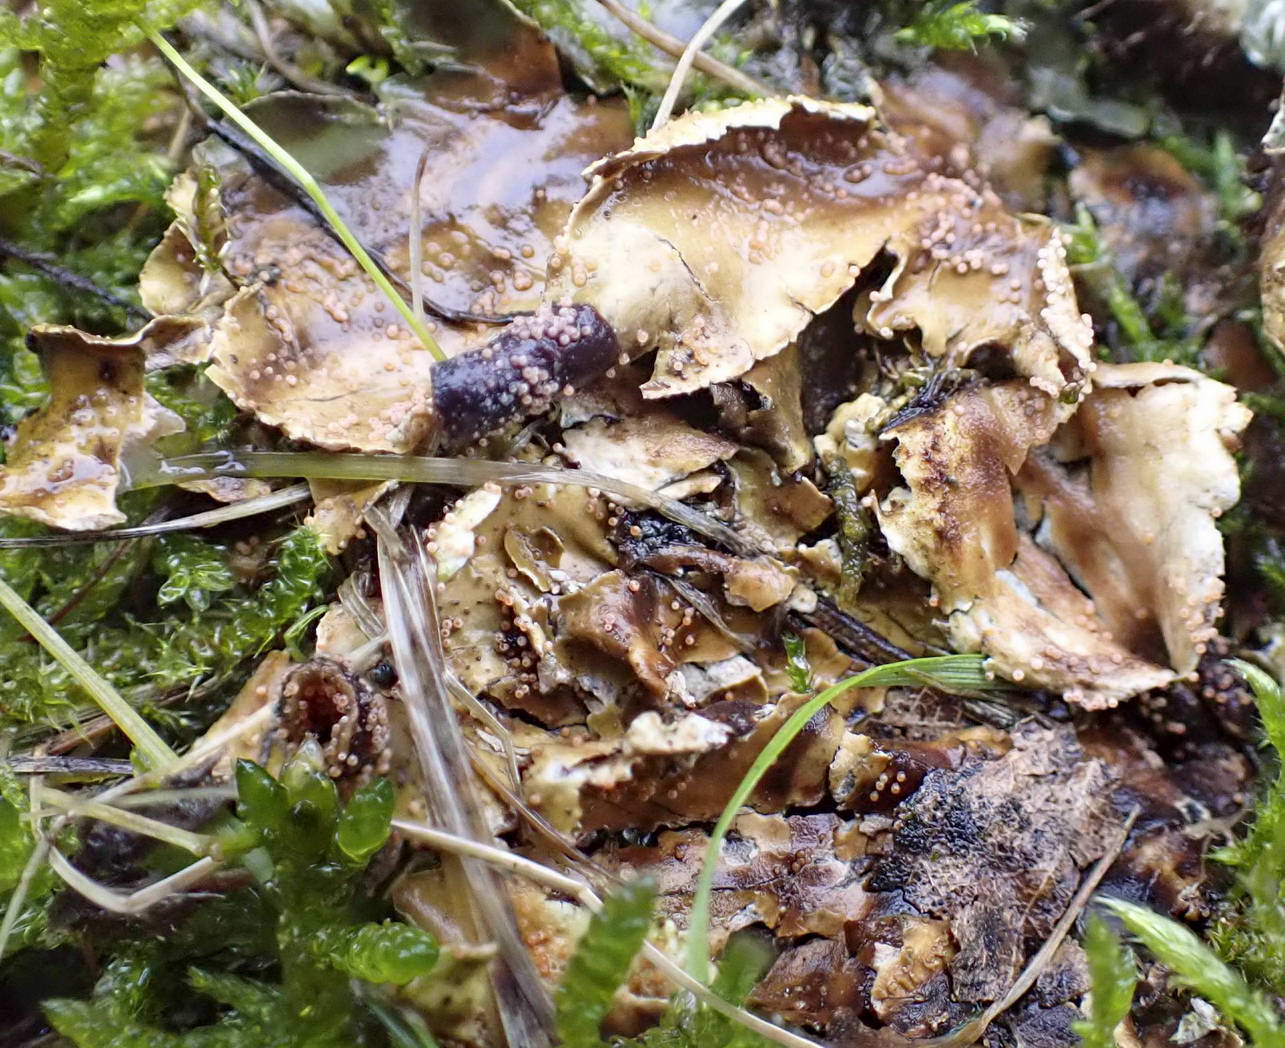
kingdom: Fungi
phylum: Ascomycota
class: Sordariomycetes
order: Hypocreales
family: Bionectriaceae
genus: Nectriopsis
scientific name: Nectriopsis lecanodes
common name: skjoldlav-gyldenkerne
